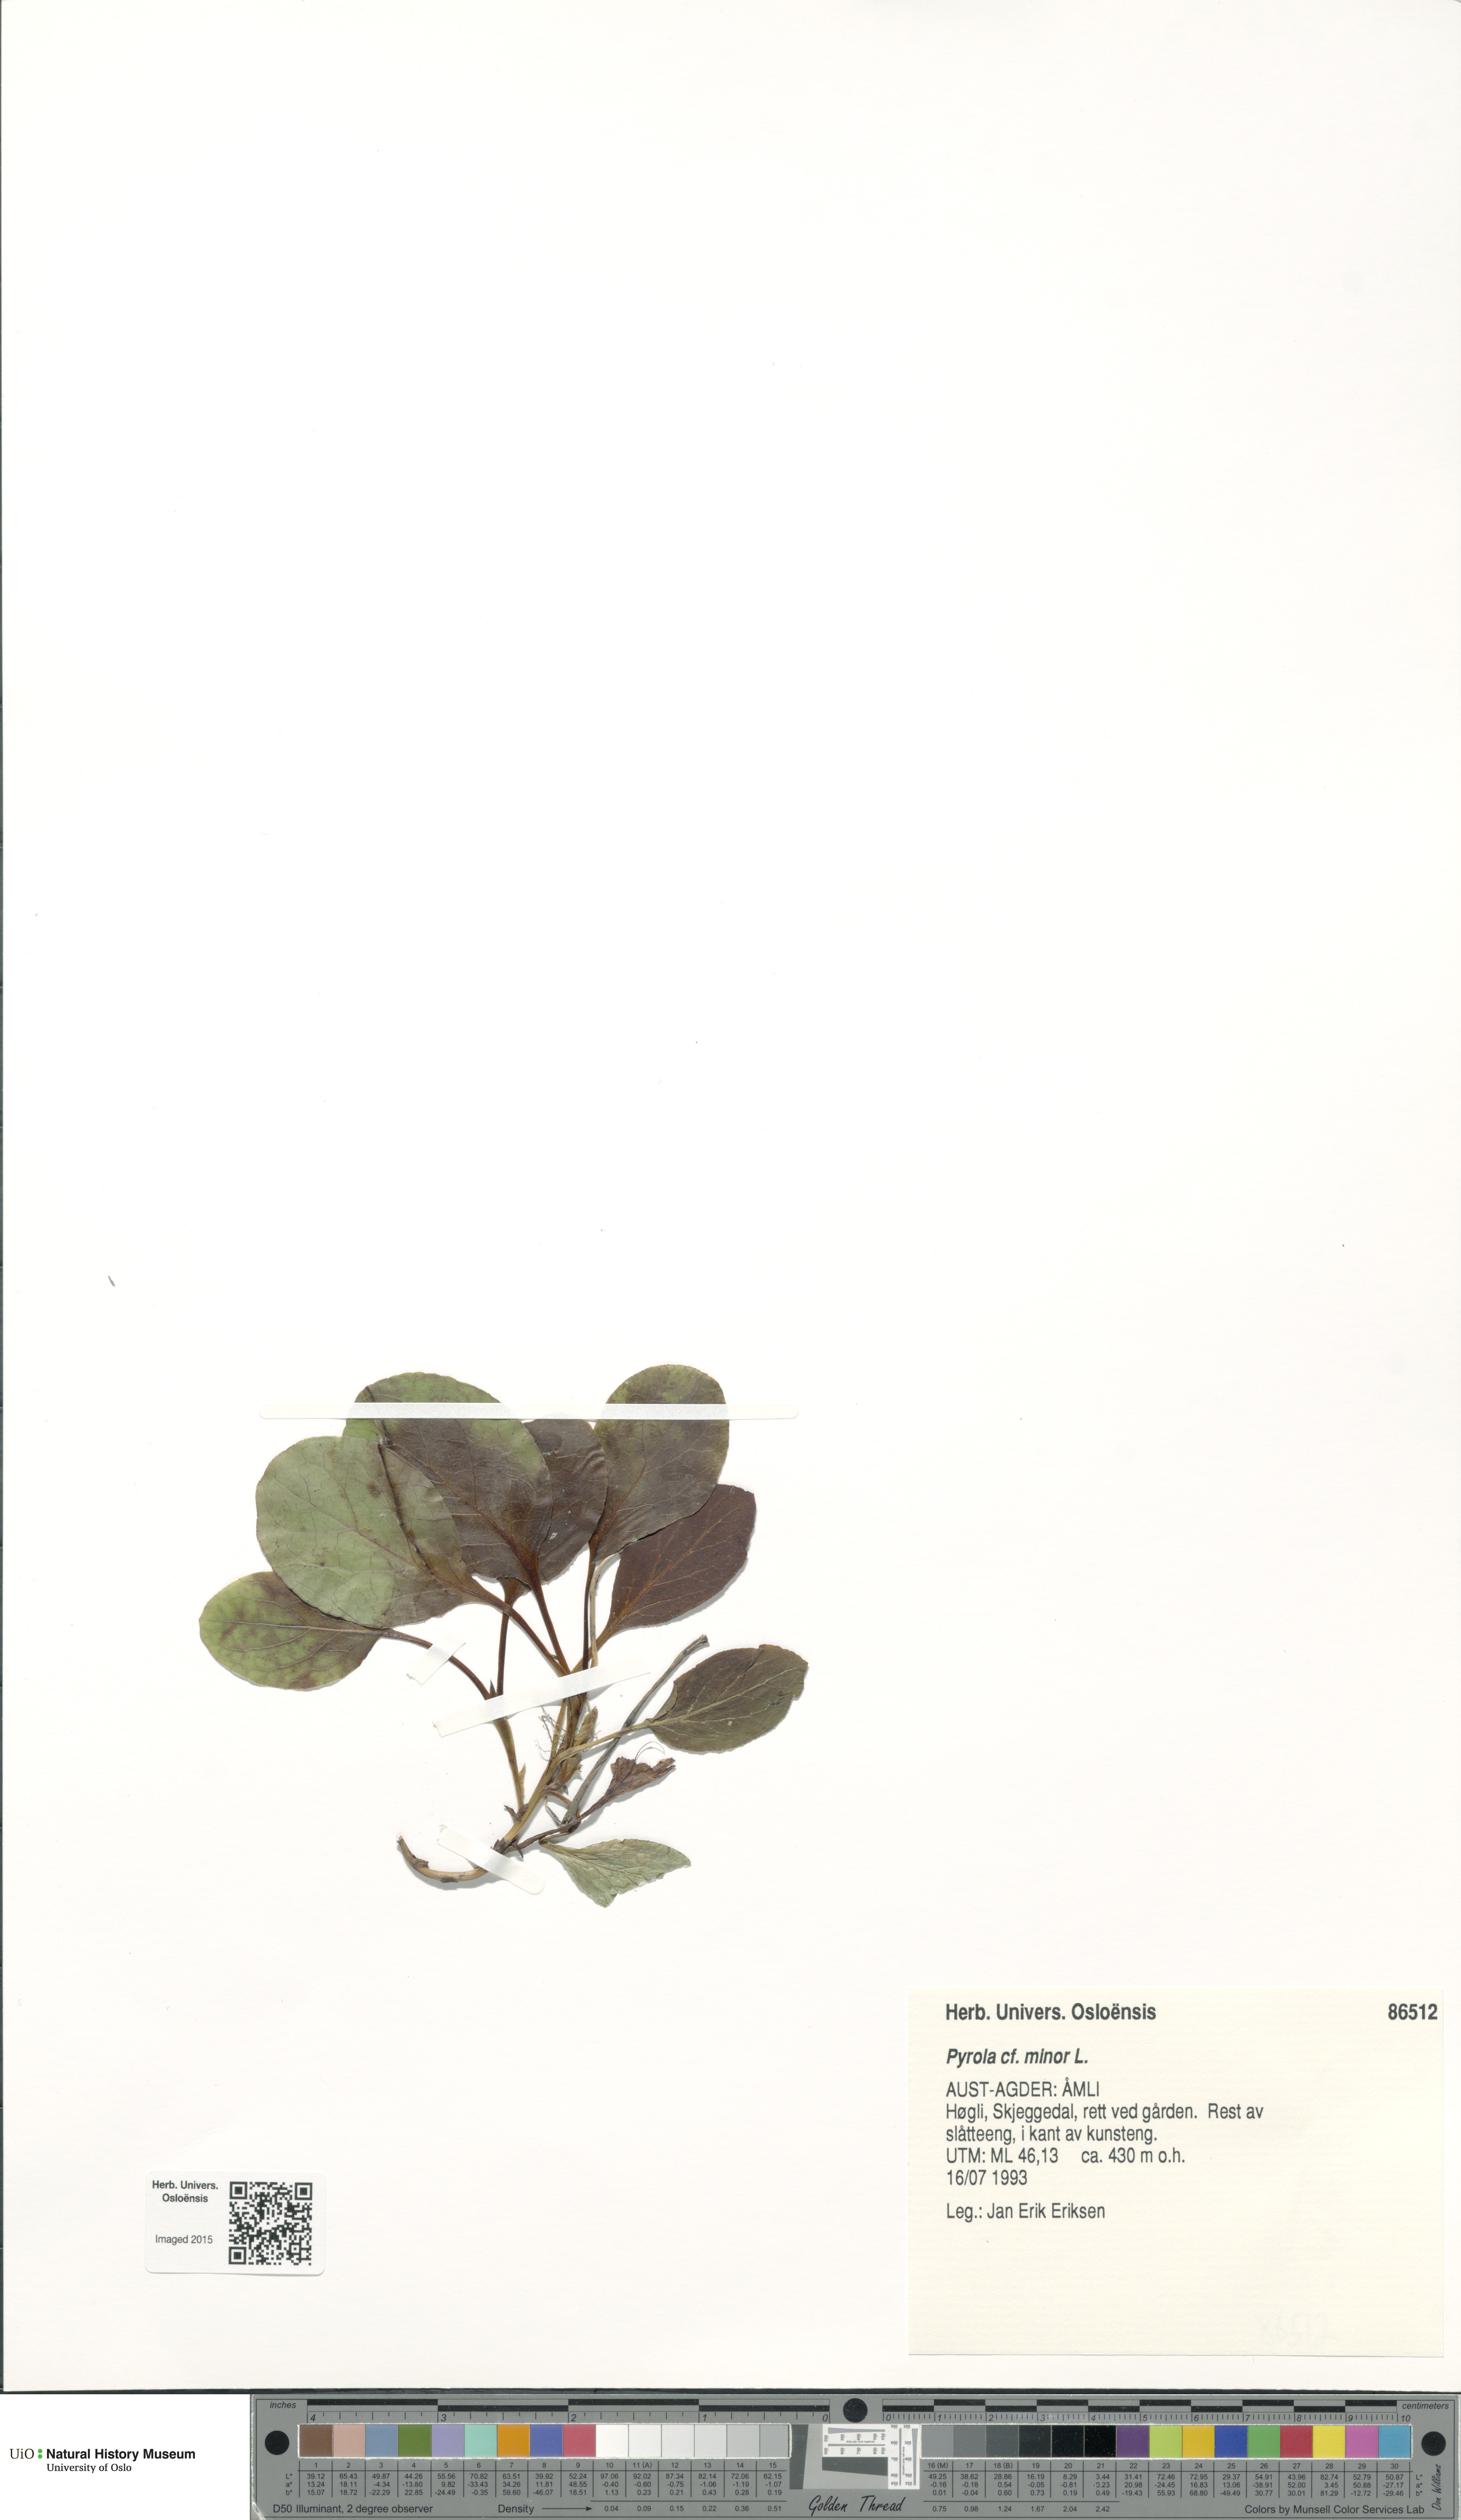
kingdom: Plantae
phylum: Tracheophyta
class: Magnoliopsida
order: Ericales
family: Ericaceae
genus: Pyrola
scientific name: Pyrola minor
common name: Common wintergreen
